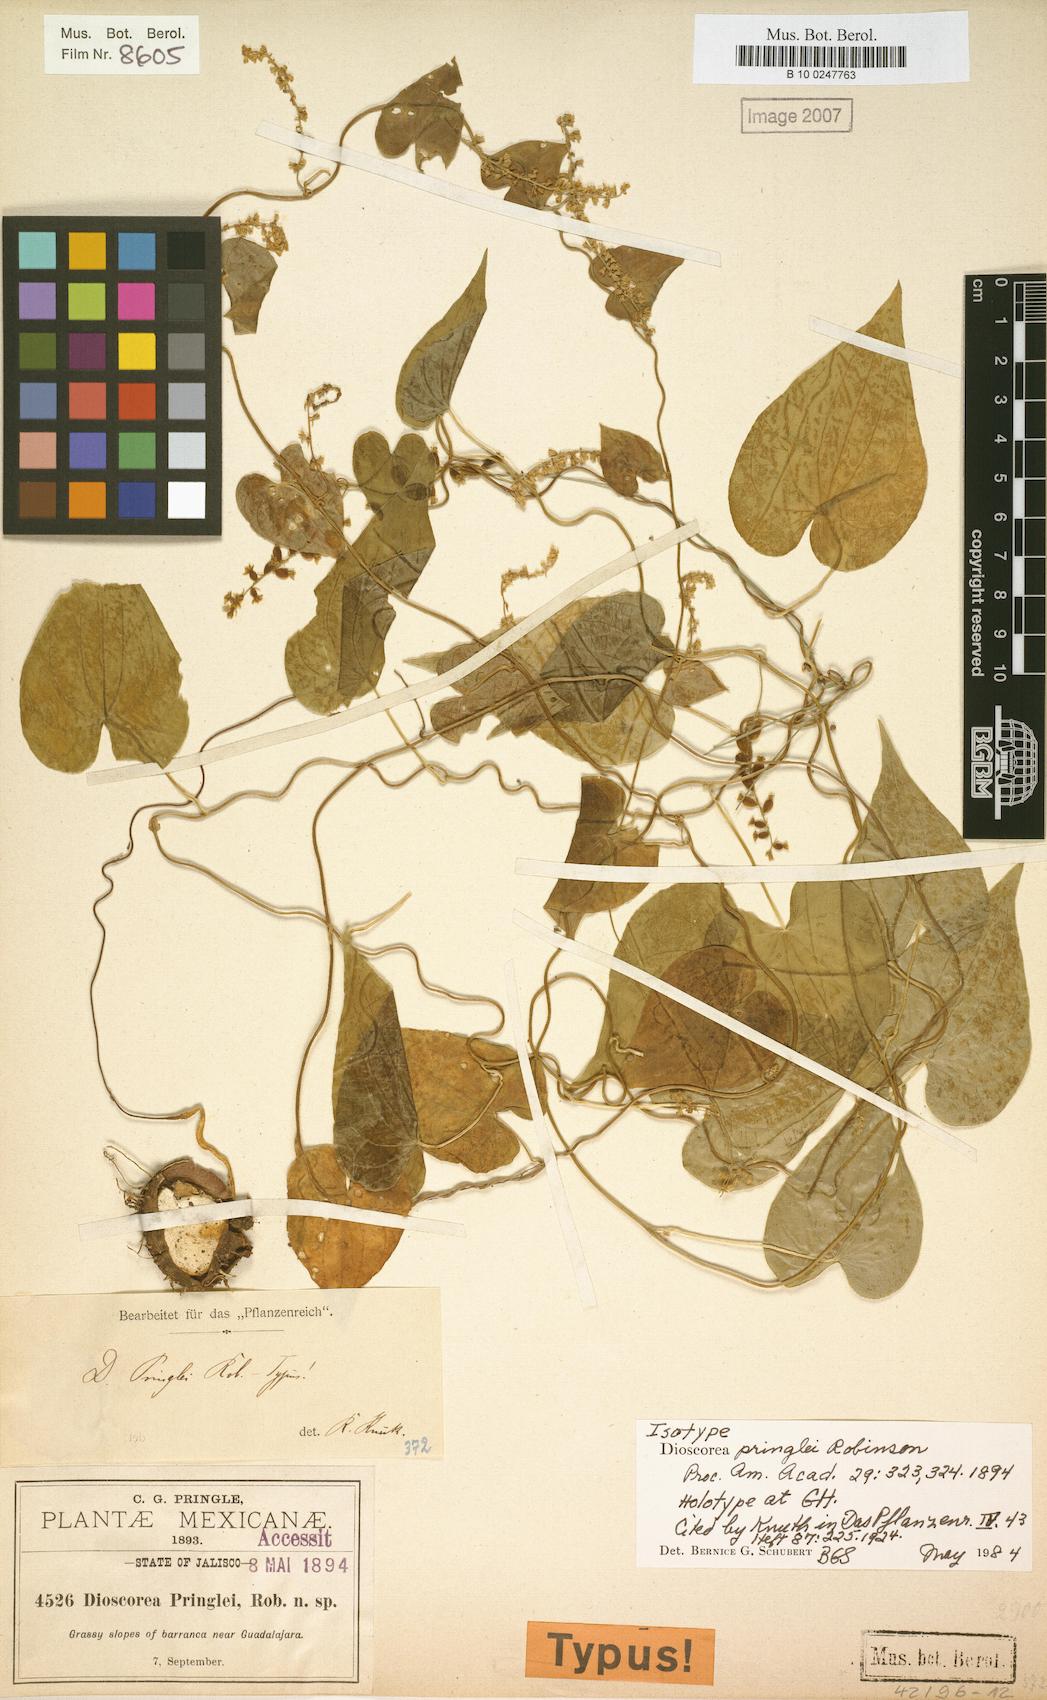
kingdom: Plantae
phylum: Tracheophyta
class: Liliopsida
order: Dioscoreales
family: Dioscoreaceae
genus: Dioscorea
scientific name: Dioscorea pringlei
